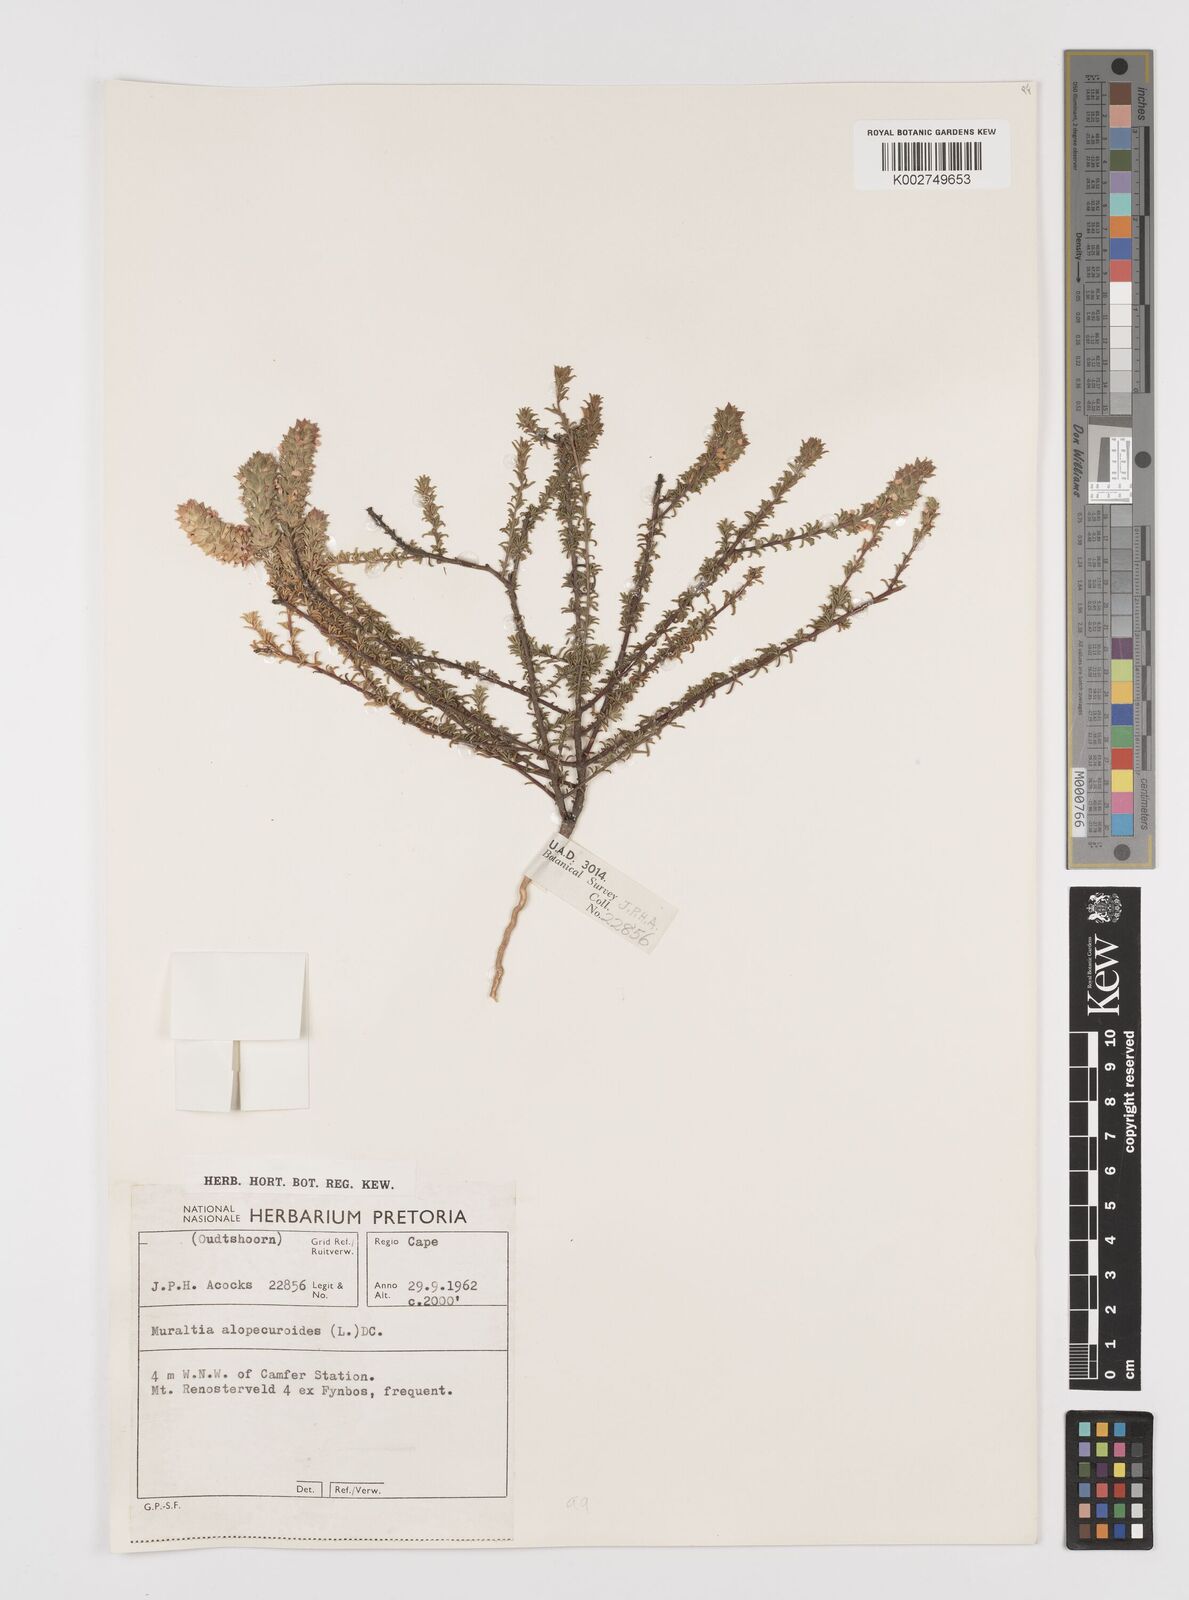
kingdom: Plantae
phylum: Tracheophyta
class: Magnoliopsida
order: Fabales
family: Polygalaceae
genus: Muraltia
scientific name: Muraltia alopecuroides
